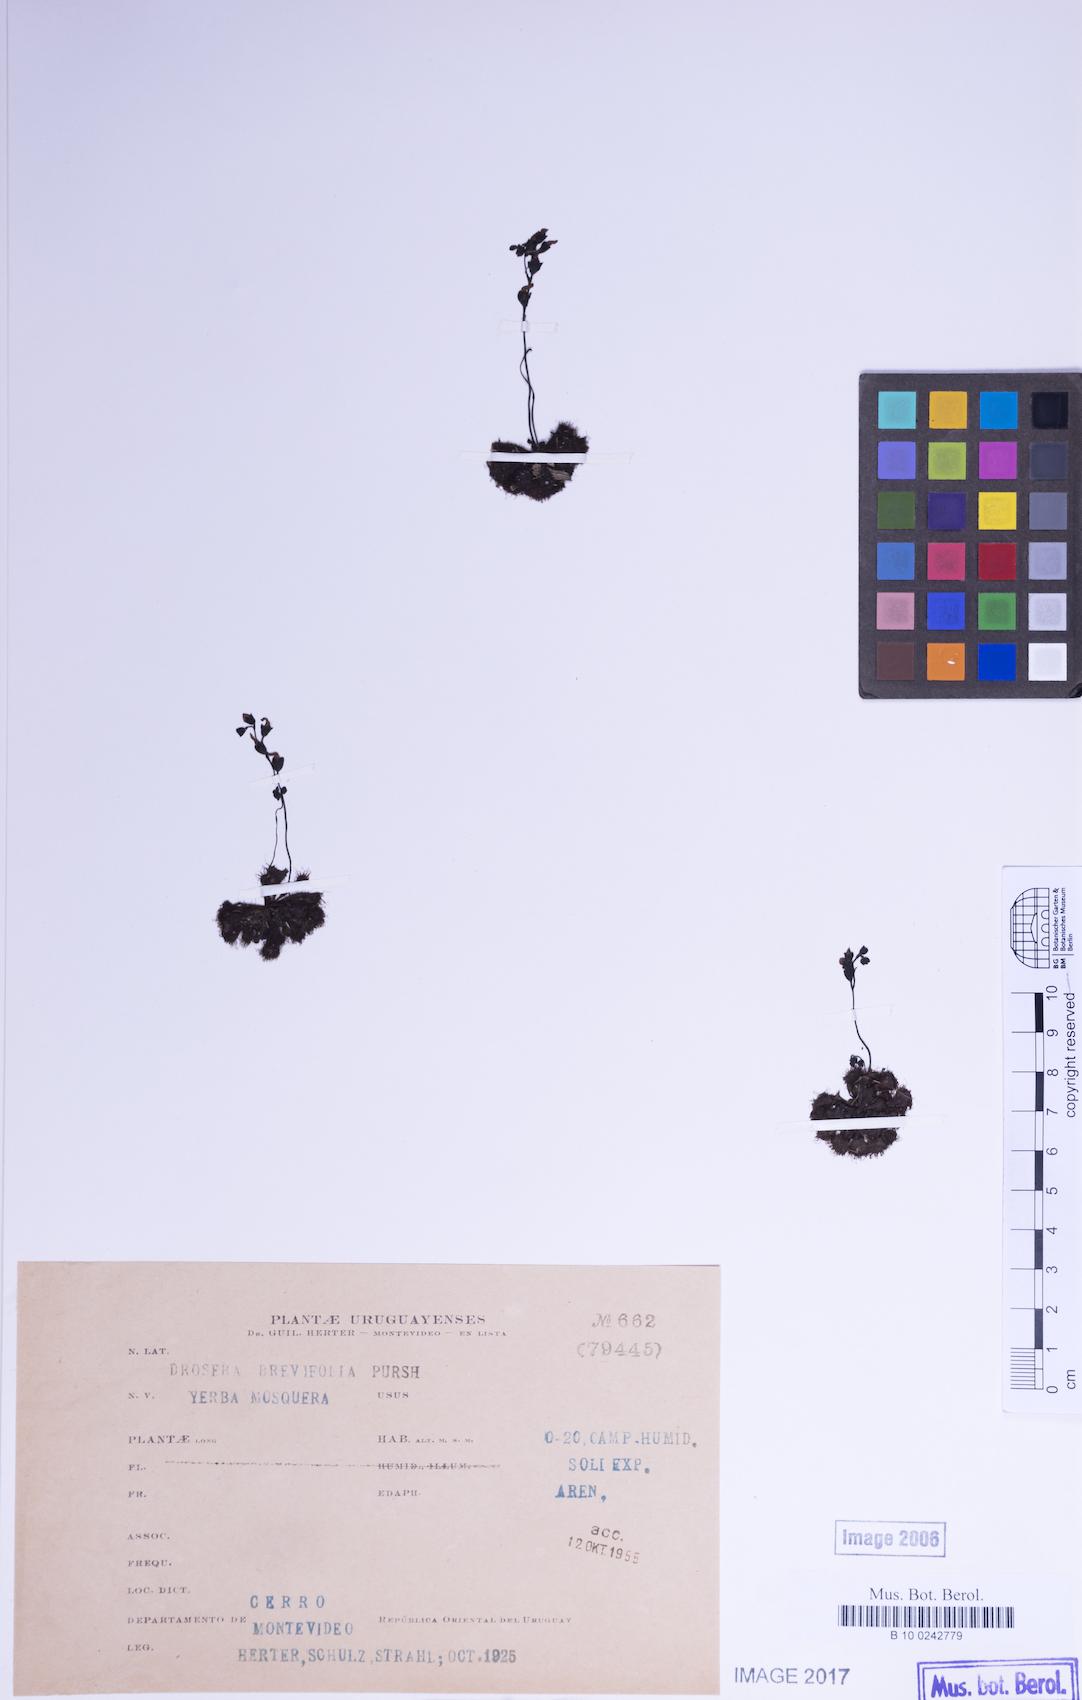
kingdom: Plantae
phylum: Tracheophyta
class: Magnoliopsida
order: Caryophyllales
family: Droseraceae
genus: Drosera
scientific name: Drosera brevifolia
